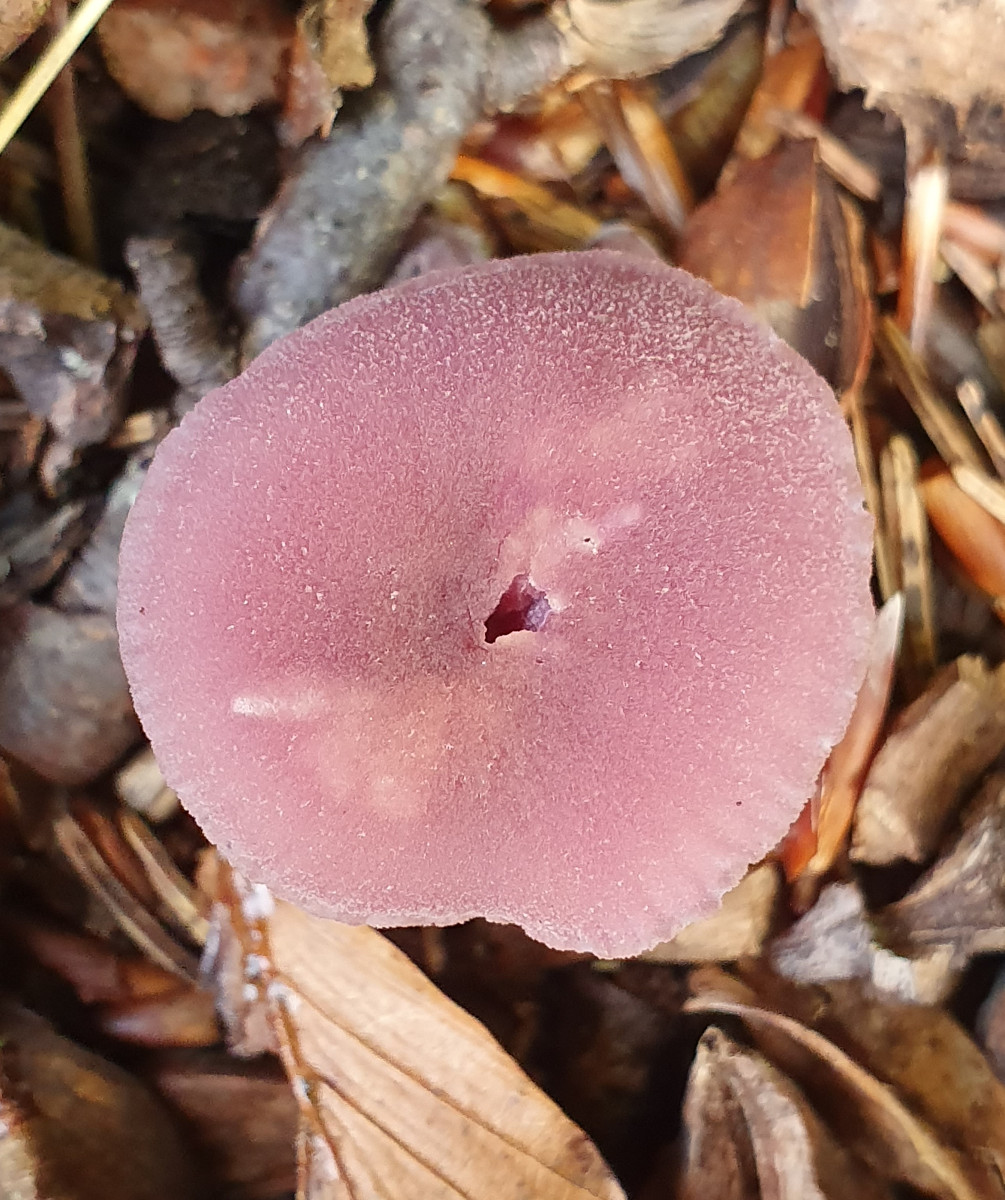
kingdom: Fungi
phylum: Basidiomycota
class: Agaricomycetes
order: Agaricales
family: Hydnangiaceae
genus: Laccaria
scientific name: Laccaria laccata
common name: rød ametysthat
